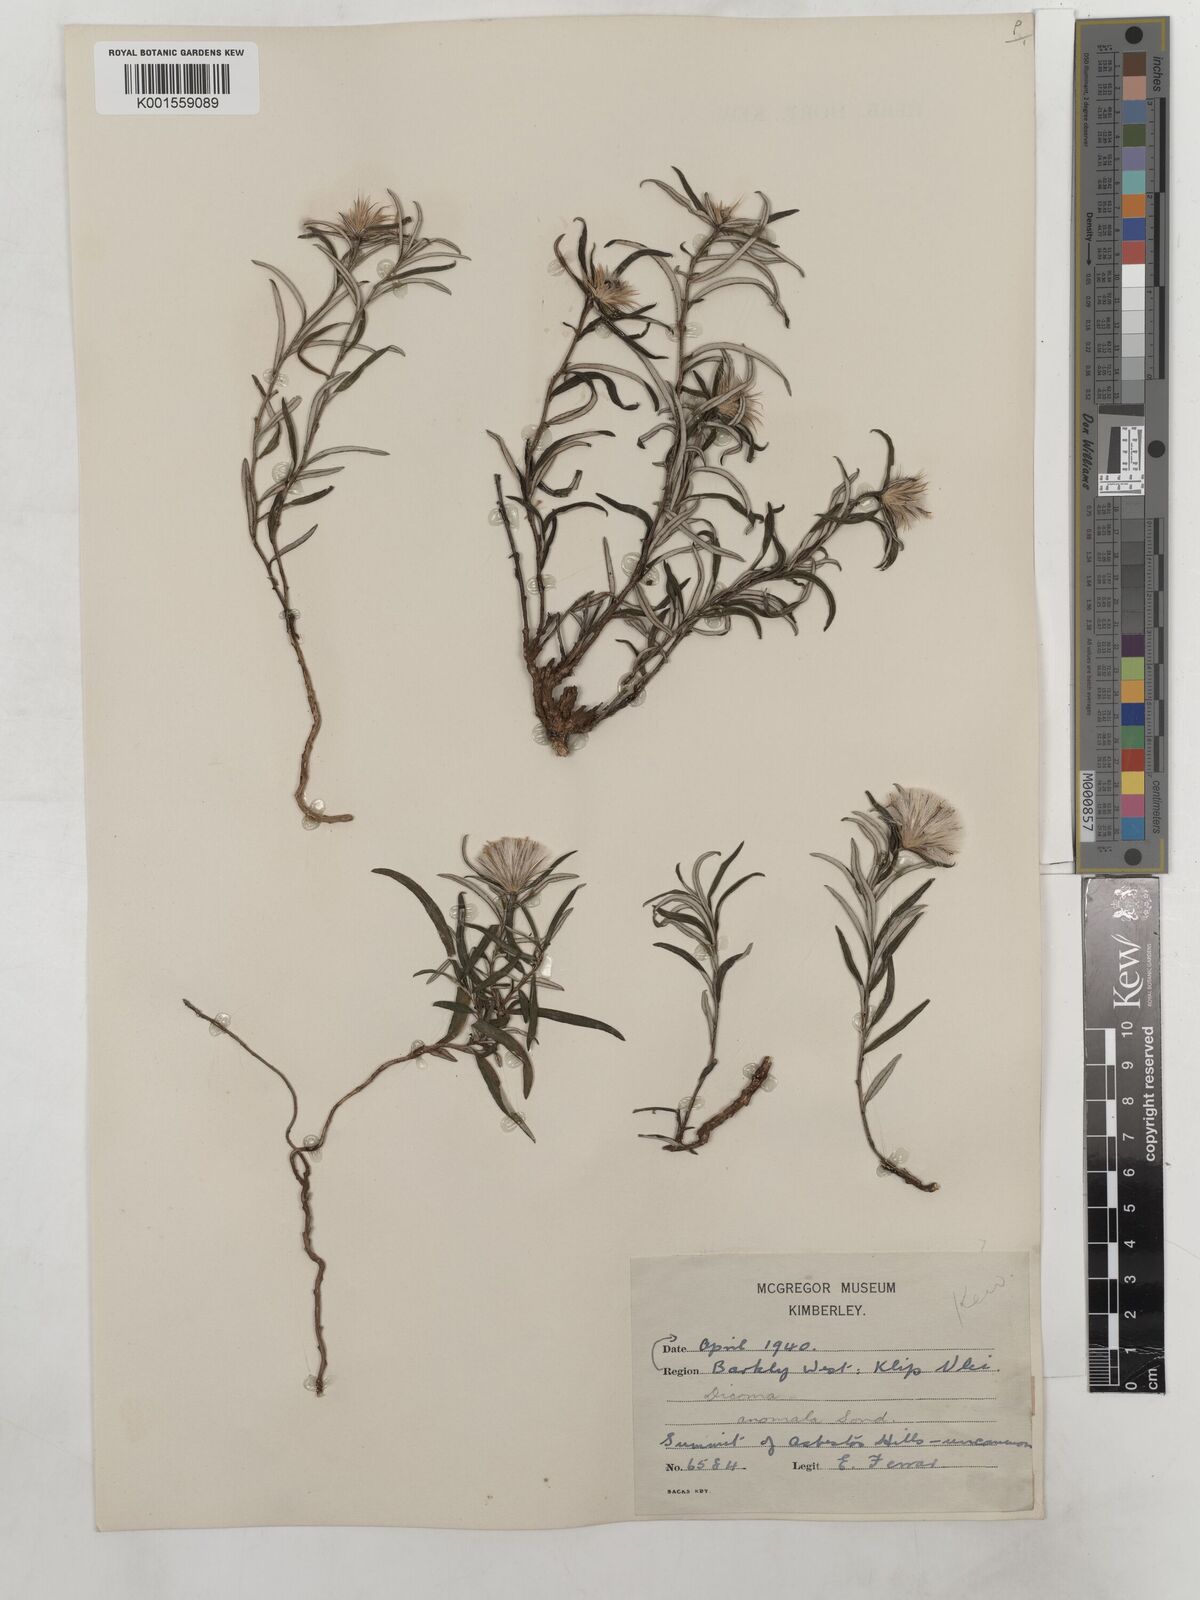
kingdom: Plantae
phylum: Tracheophyta
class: Magnoliopsida
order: Asterales
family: Asteraceae
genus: Dicoma
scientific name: Dicoma anomala
